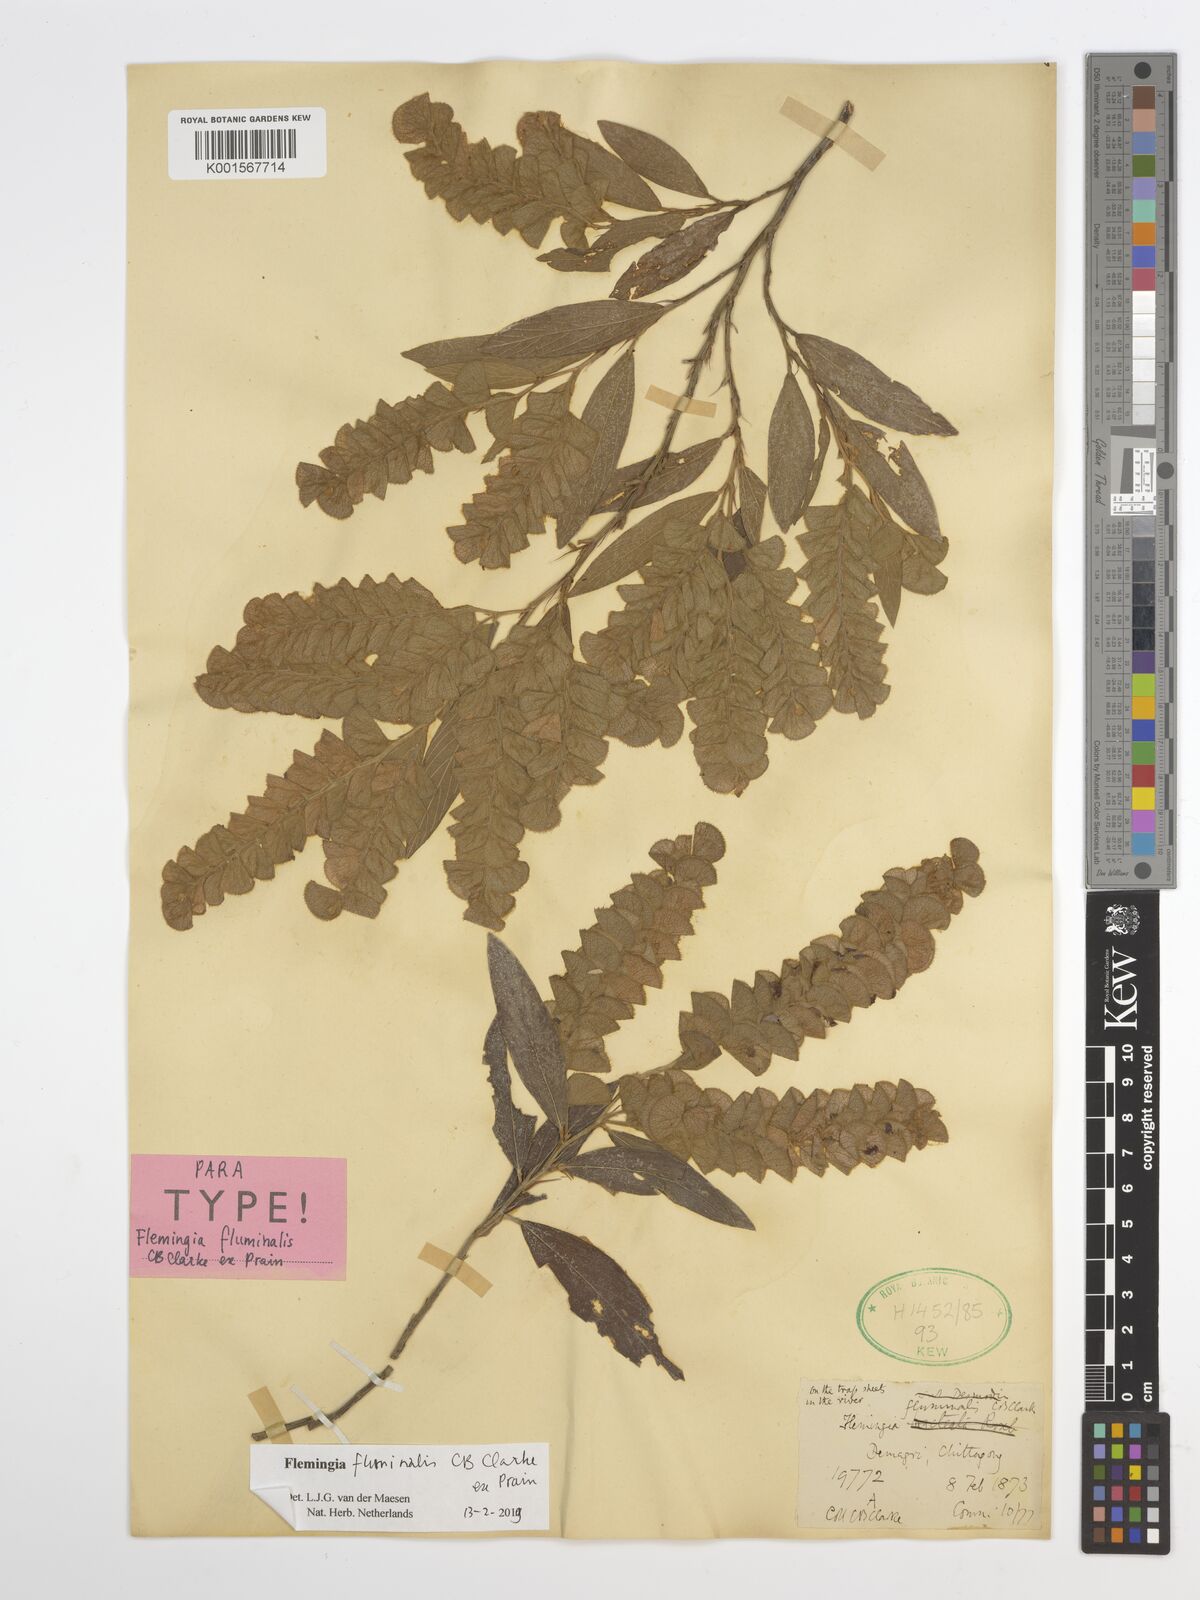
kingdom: Plantae
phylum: Tracheophyta
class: Magnoliopsida
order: Fabales
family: Fabaceae
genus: Flemingia
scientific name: Flemingia fluminalis
